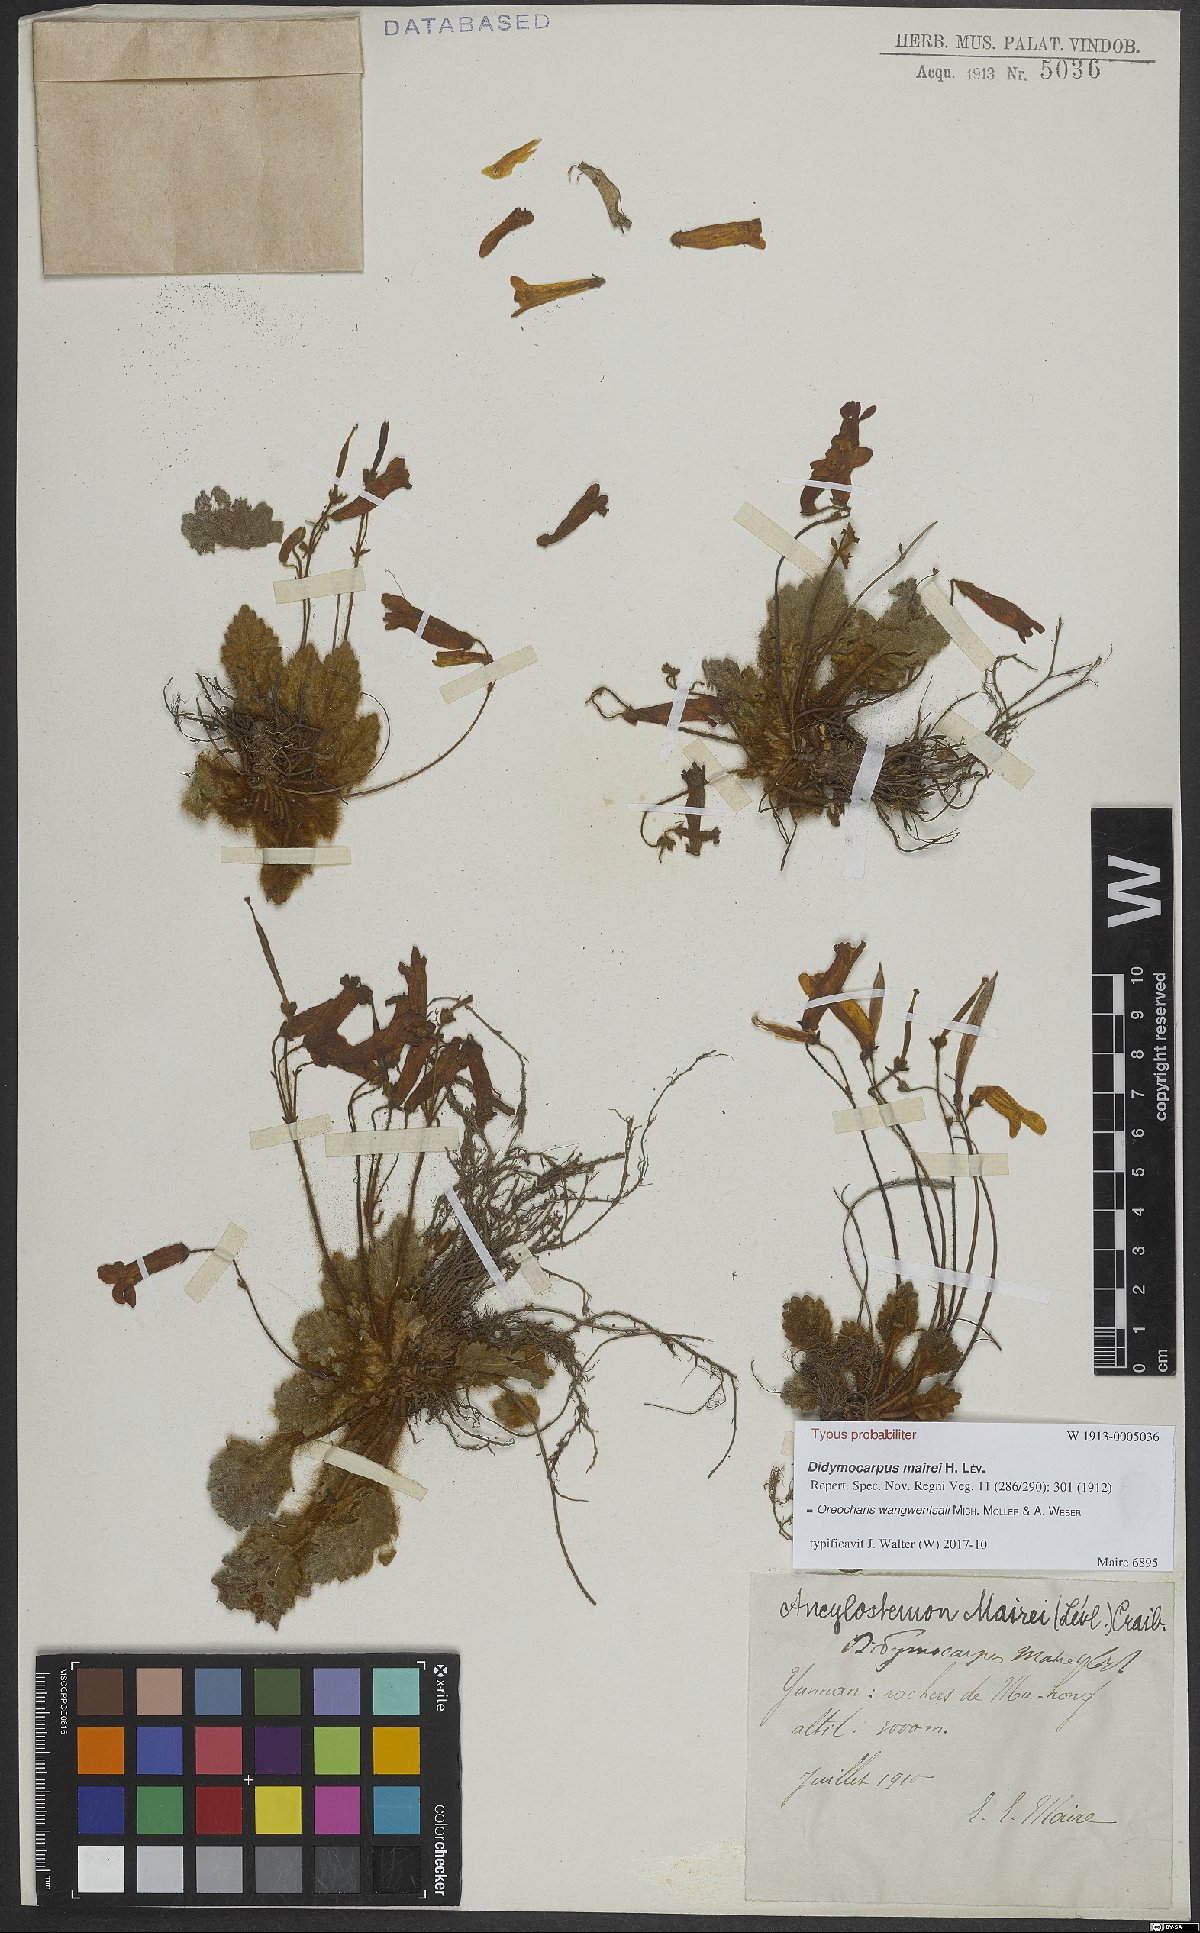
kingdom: Plantae
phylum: Tracheophyta
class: Magnoliopsida
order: Lamiales
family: Gesneriaceae
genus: Oreocharis
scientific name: Oreocharis wangwentsaii
